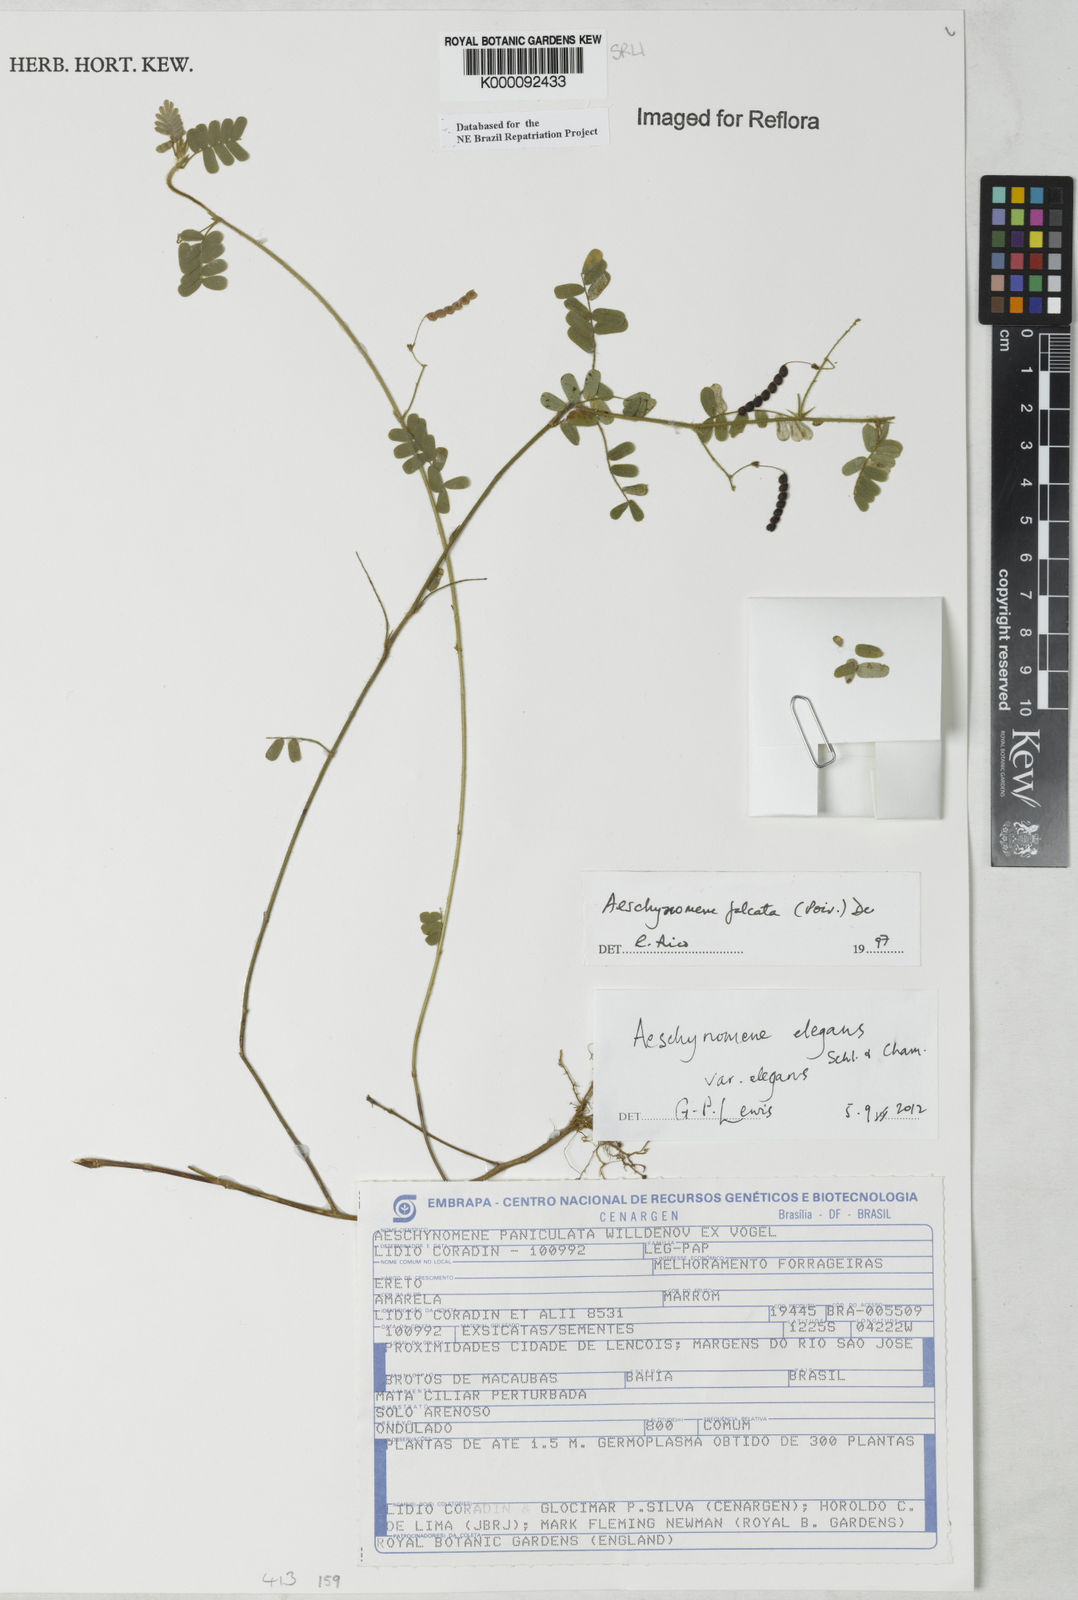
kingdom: Plantae
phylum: Tracheophyta
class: Magnoliopsida
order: Fabales
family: Fabaceae
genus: Ctenodon
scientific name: Ctenodon elegans
